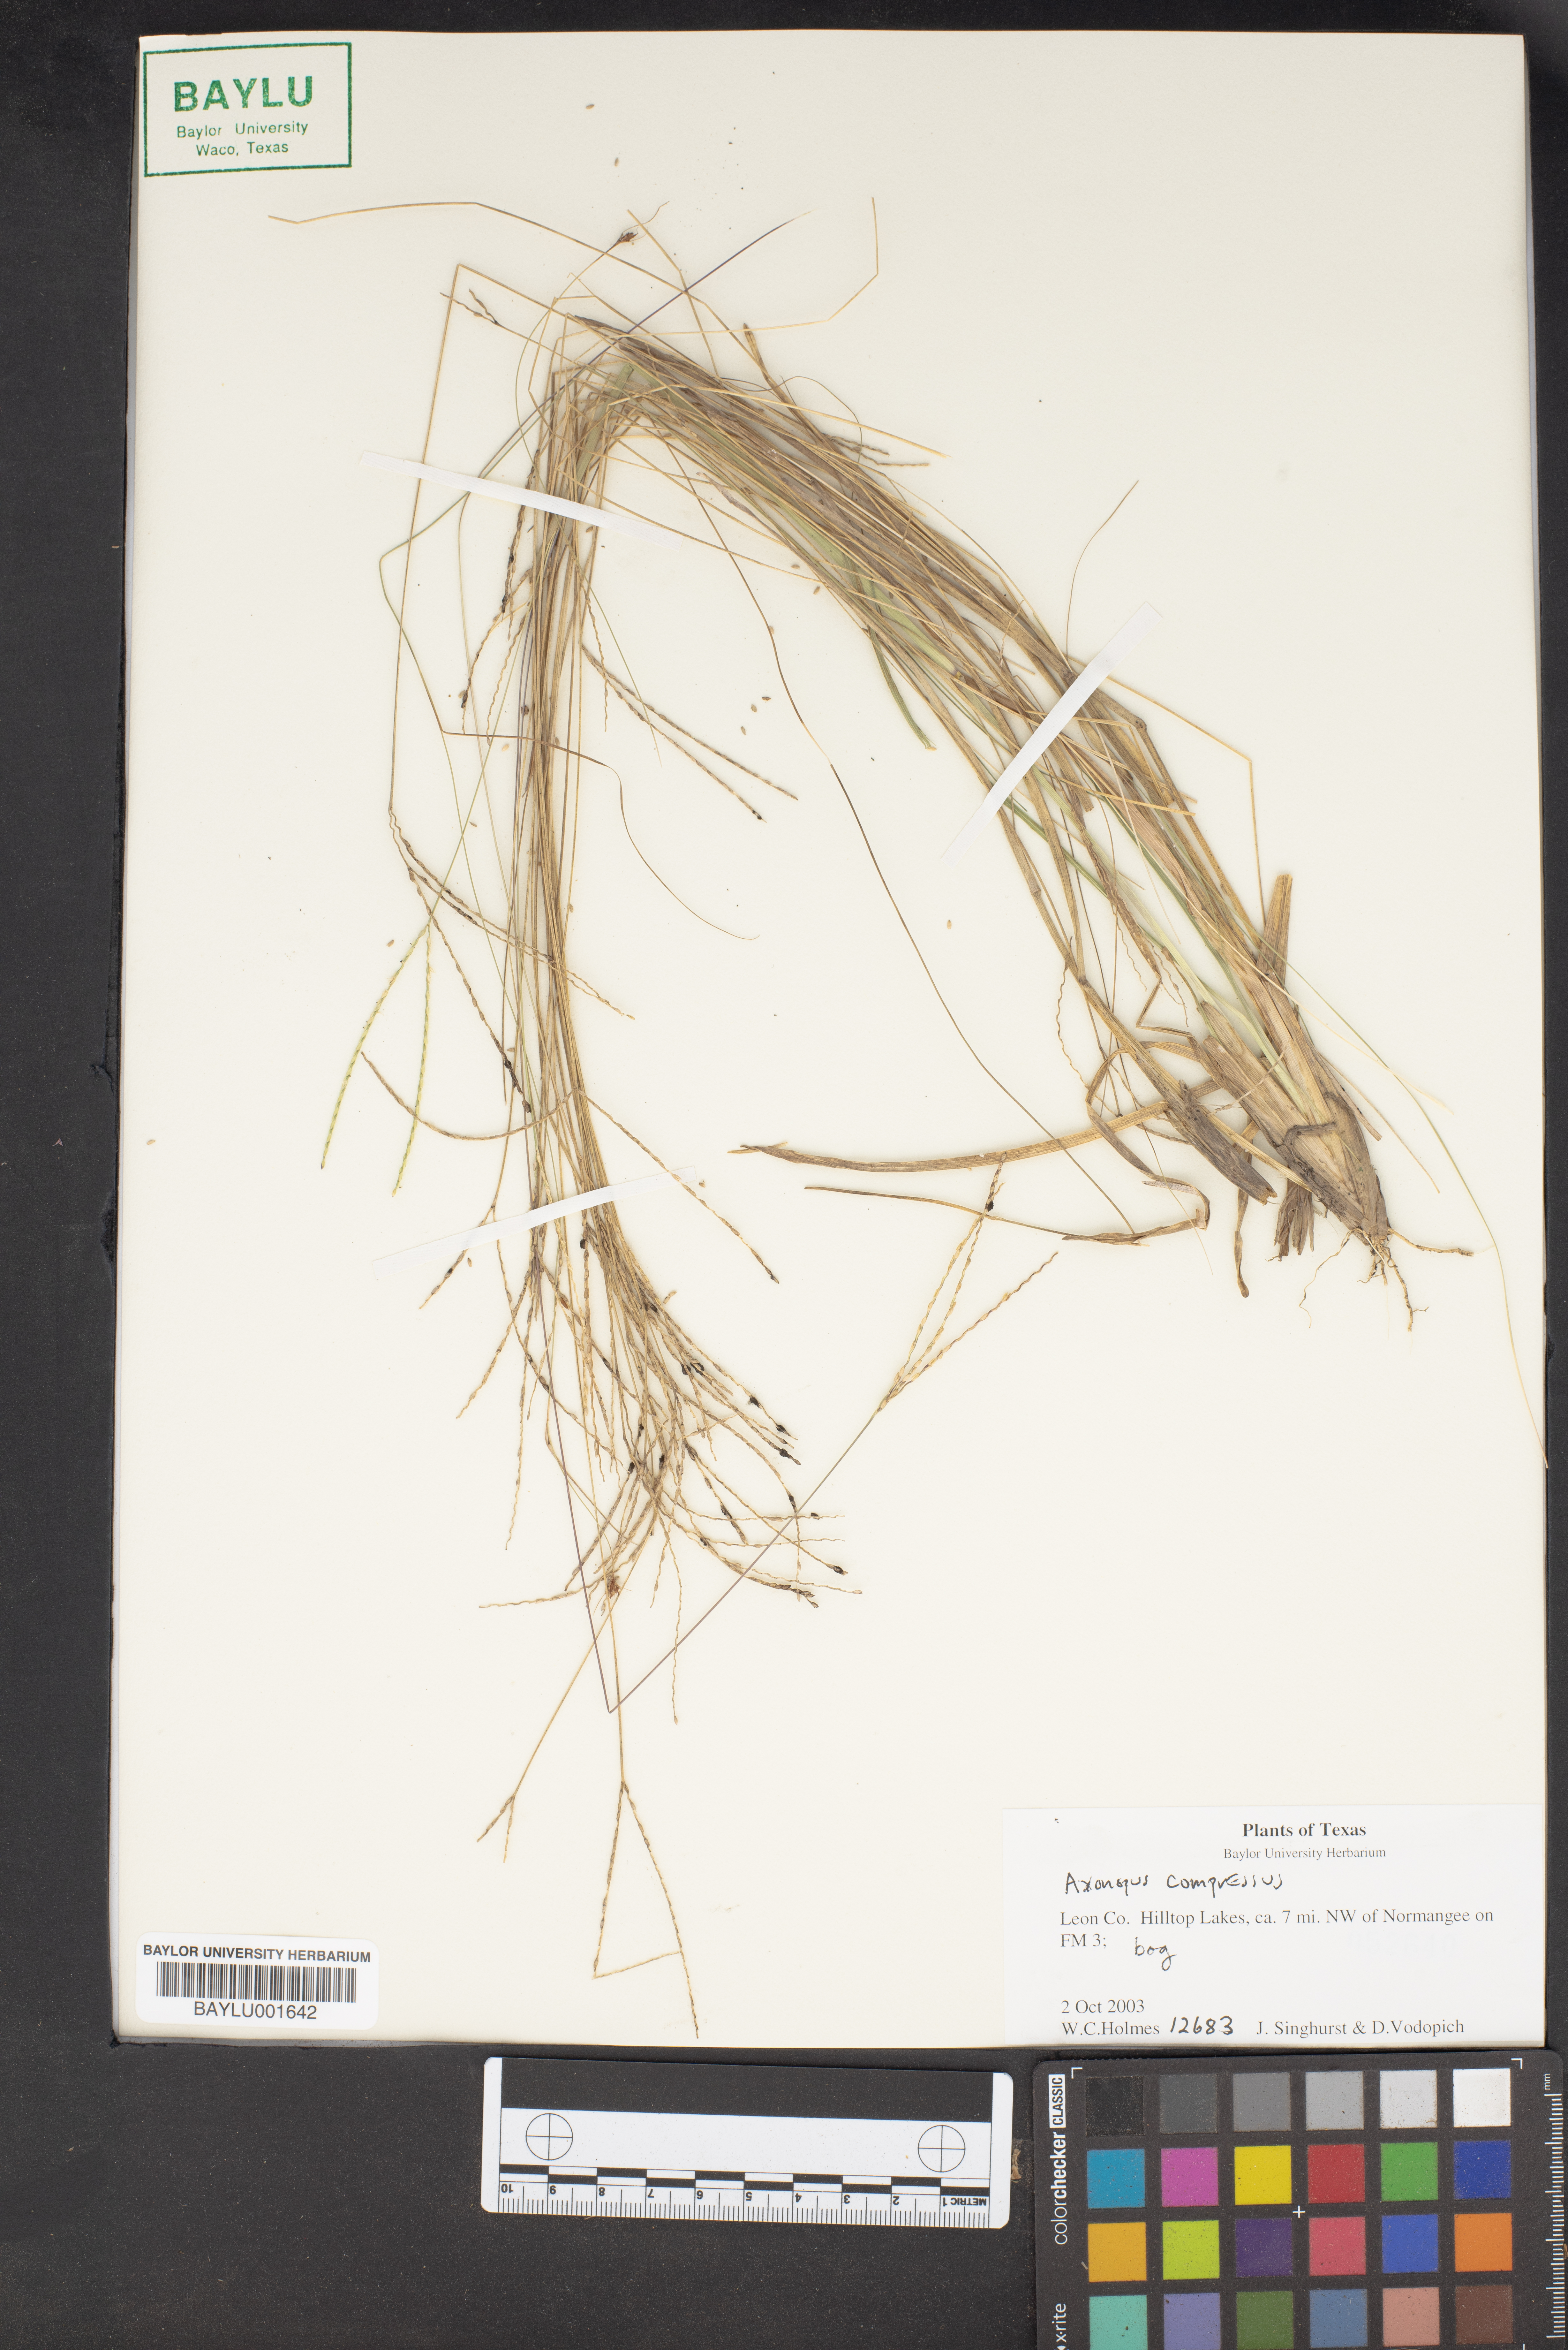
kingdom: Plantae
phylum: Tracheophyta
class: Liliopsida
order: Poales
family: Poaceae
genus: Axonopus
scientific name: Axonopus compressus
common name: American carpet grass
